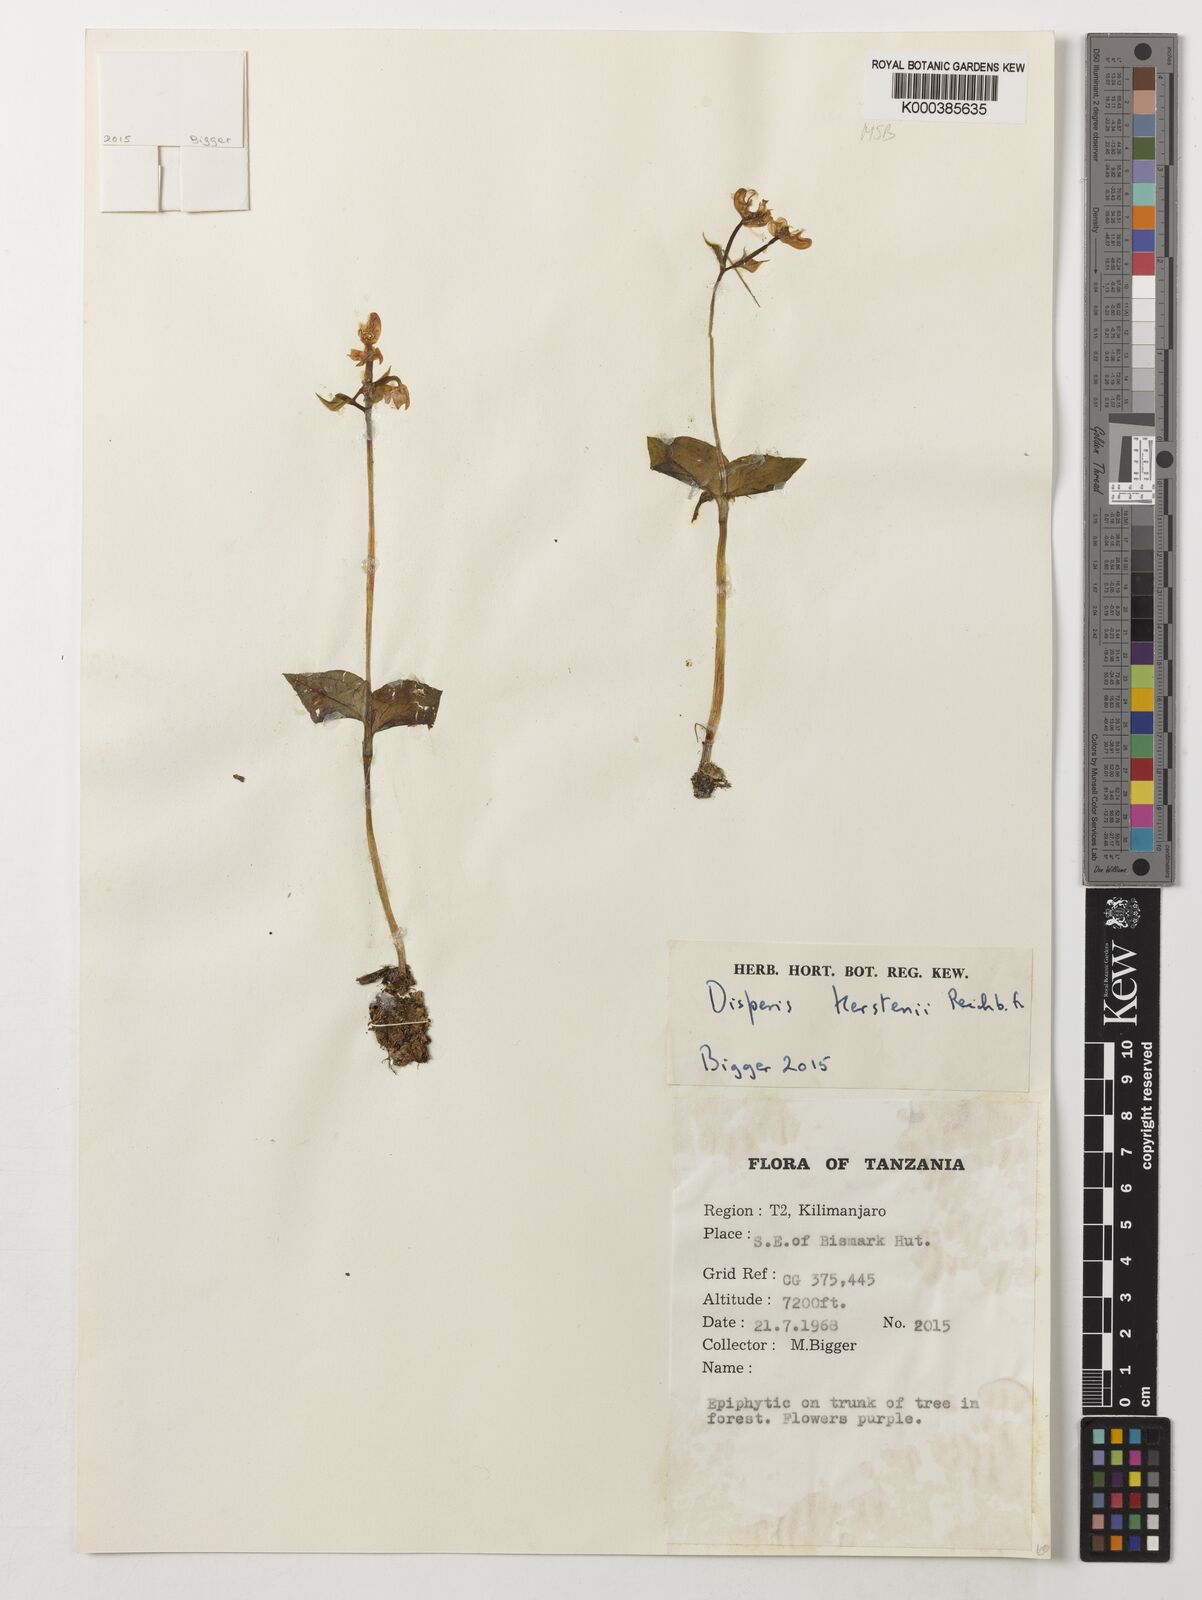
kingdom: Plantae
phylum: Tracheophyta
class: Liliopsida
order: Asparagales
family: Orchidaceae
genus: Disperis
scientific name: Disperis kerstenii
